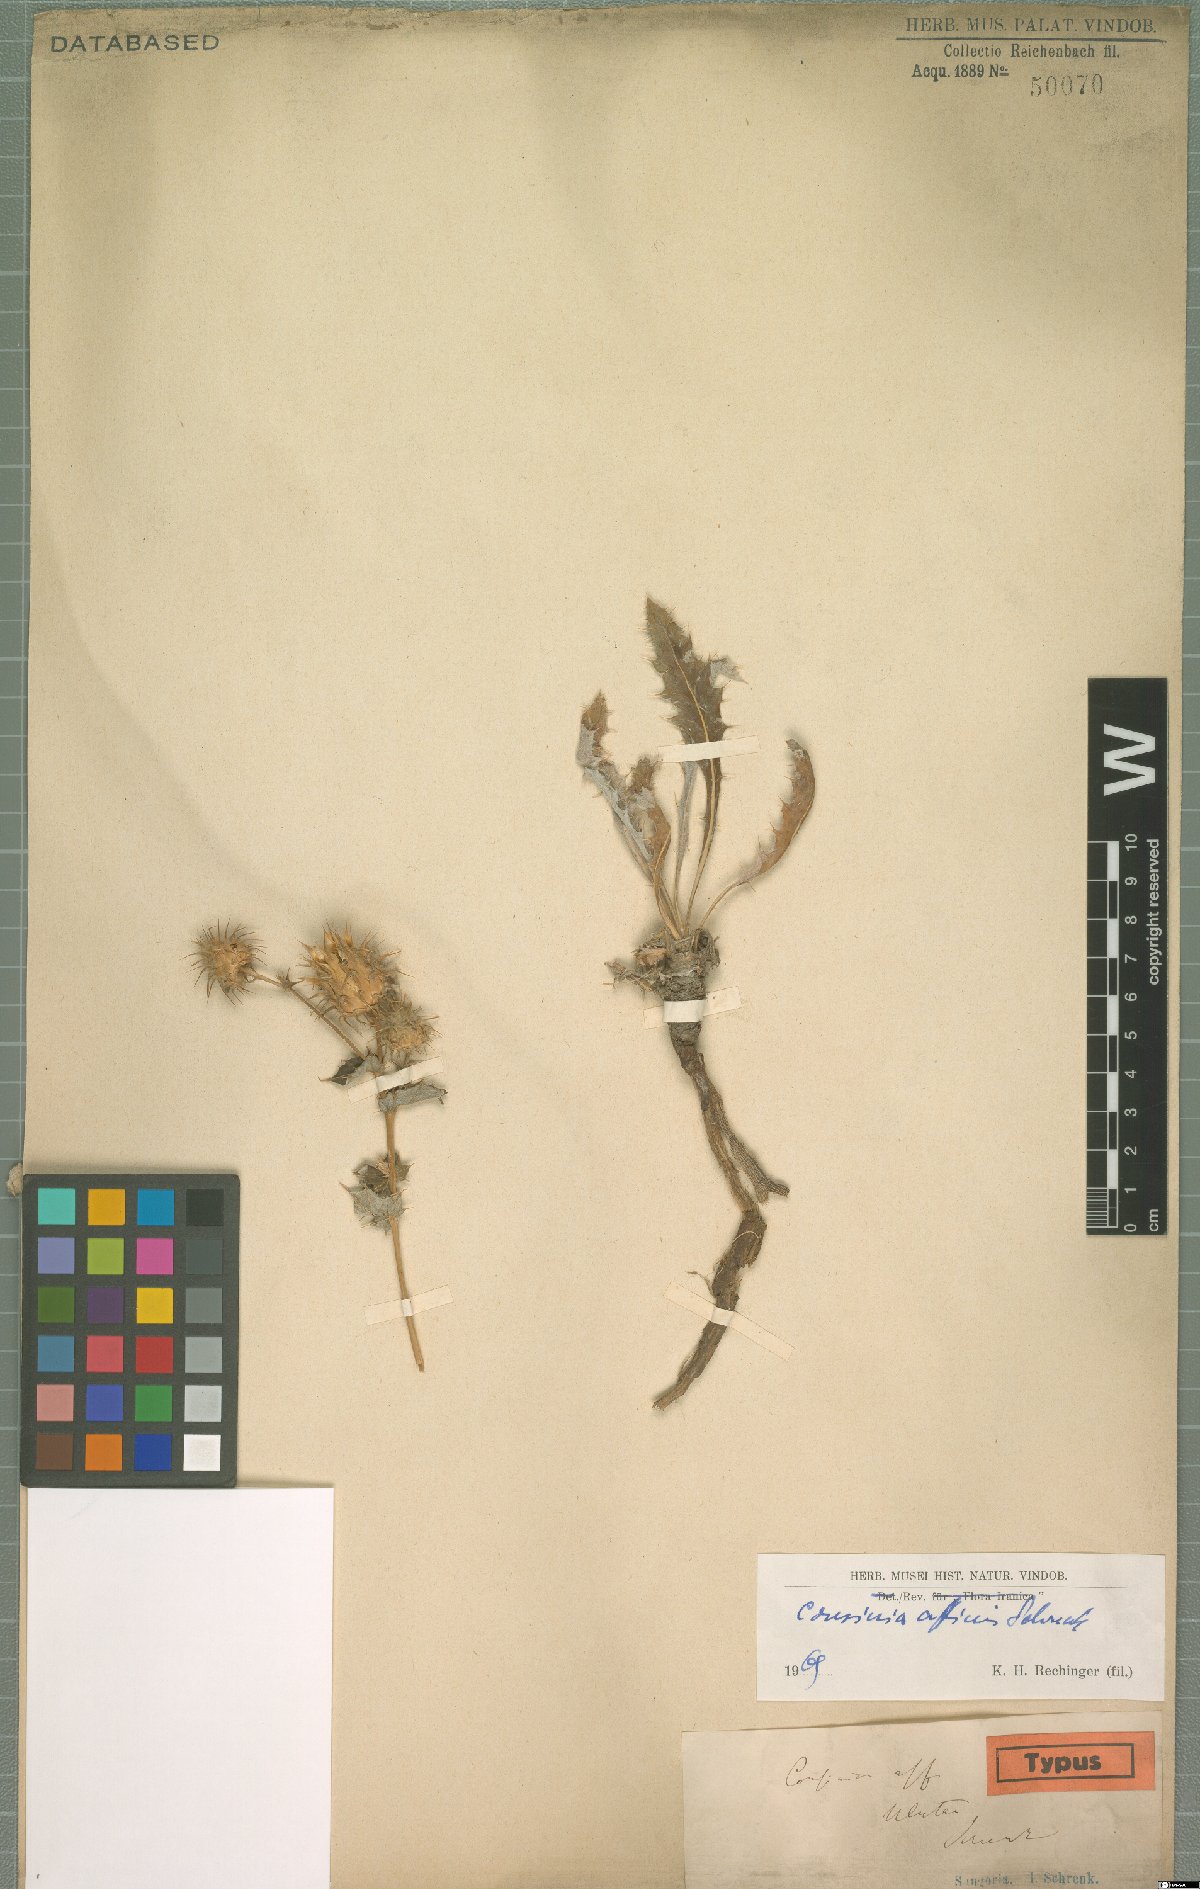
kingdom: Plantae
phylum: Tracheophyta
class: Magnoliopsida
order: Asterales
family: Asteraceae
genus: Cousinia
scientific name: Cousinia affinis
